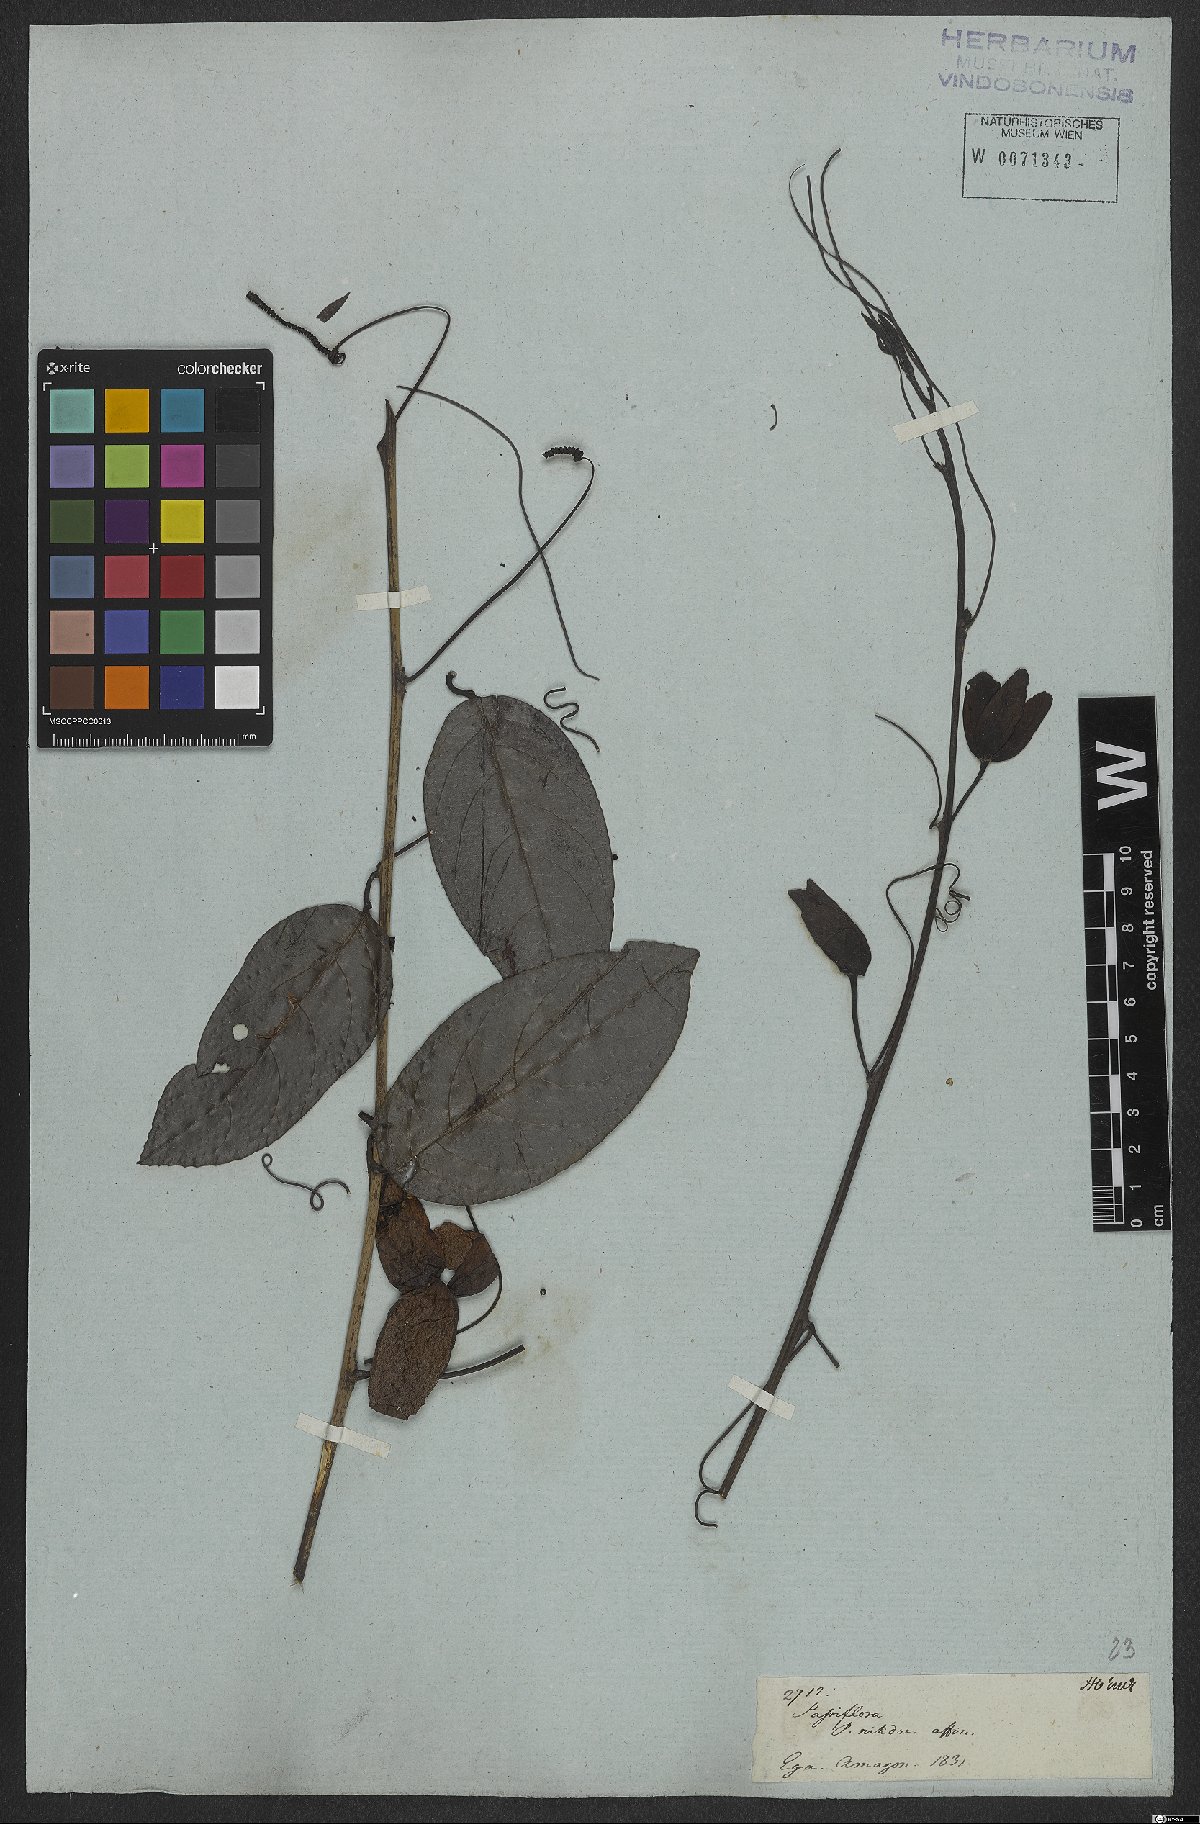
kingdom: Plantae
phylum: Tracheophyta
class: Magnoliopsida
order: Malpighiales
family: Passifloraceae
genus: Passiflora
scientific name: Passiflora nitida
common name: Bell-apple
